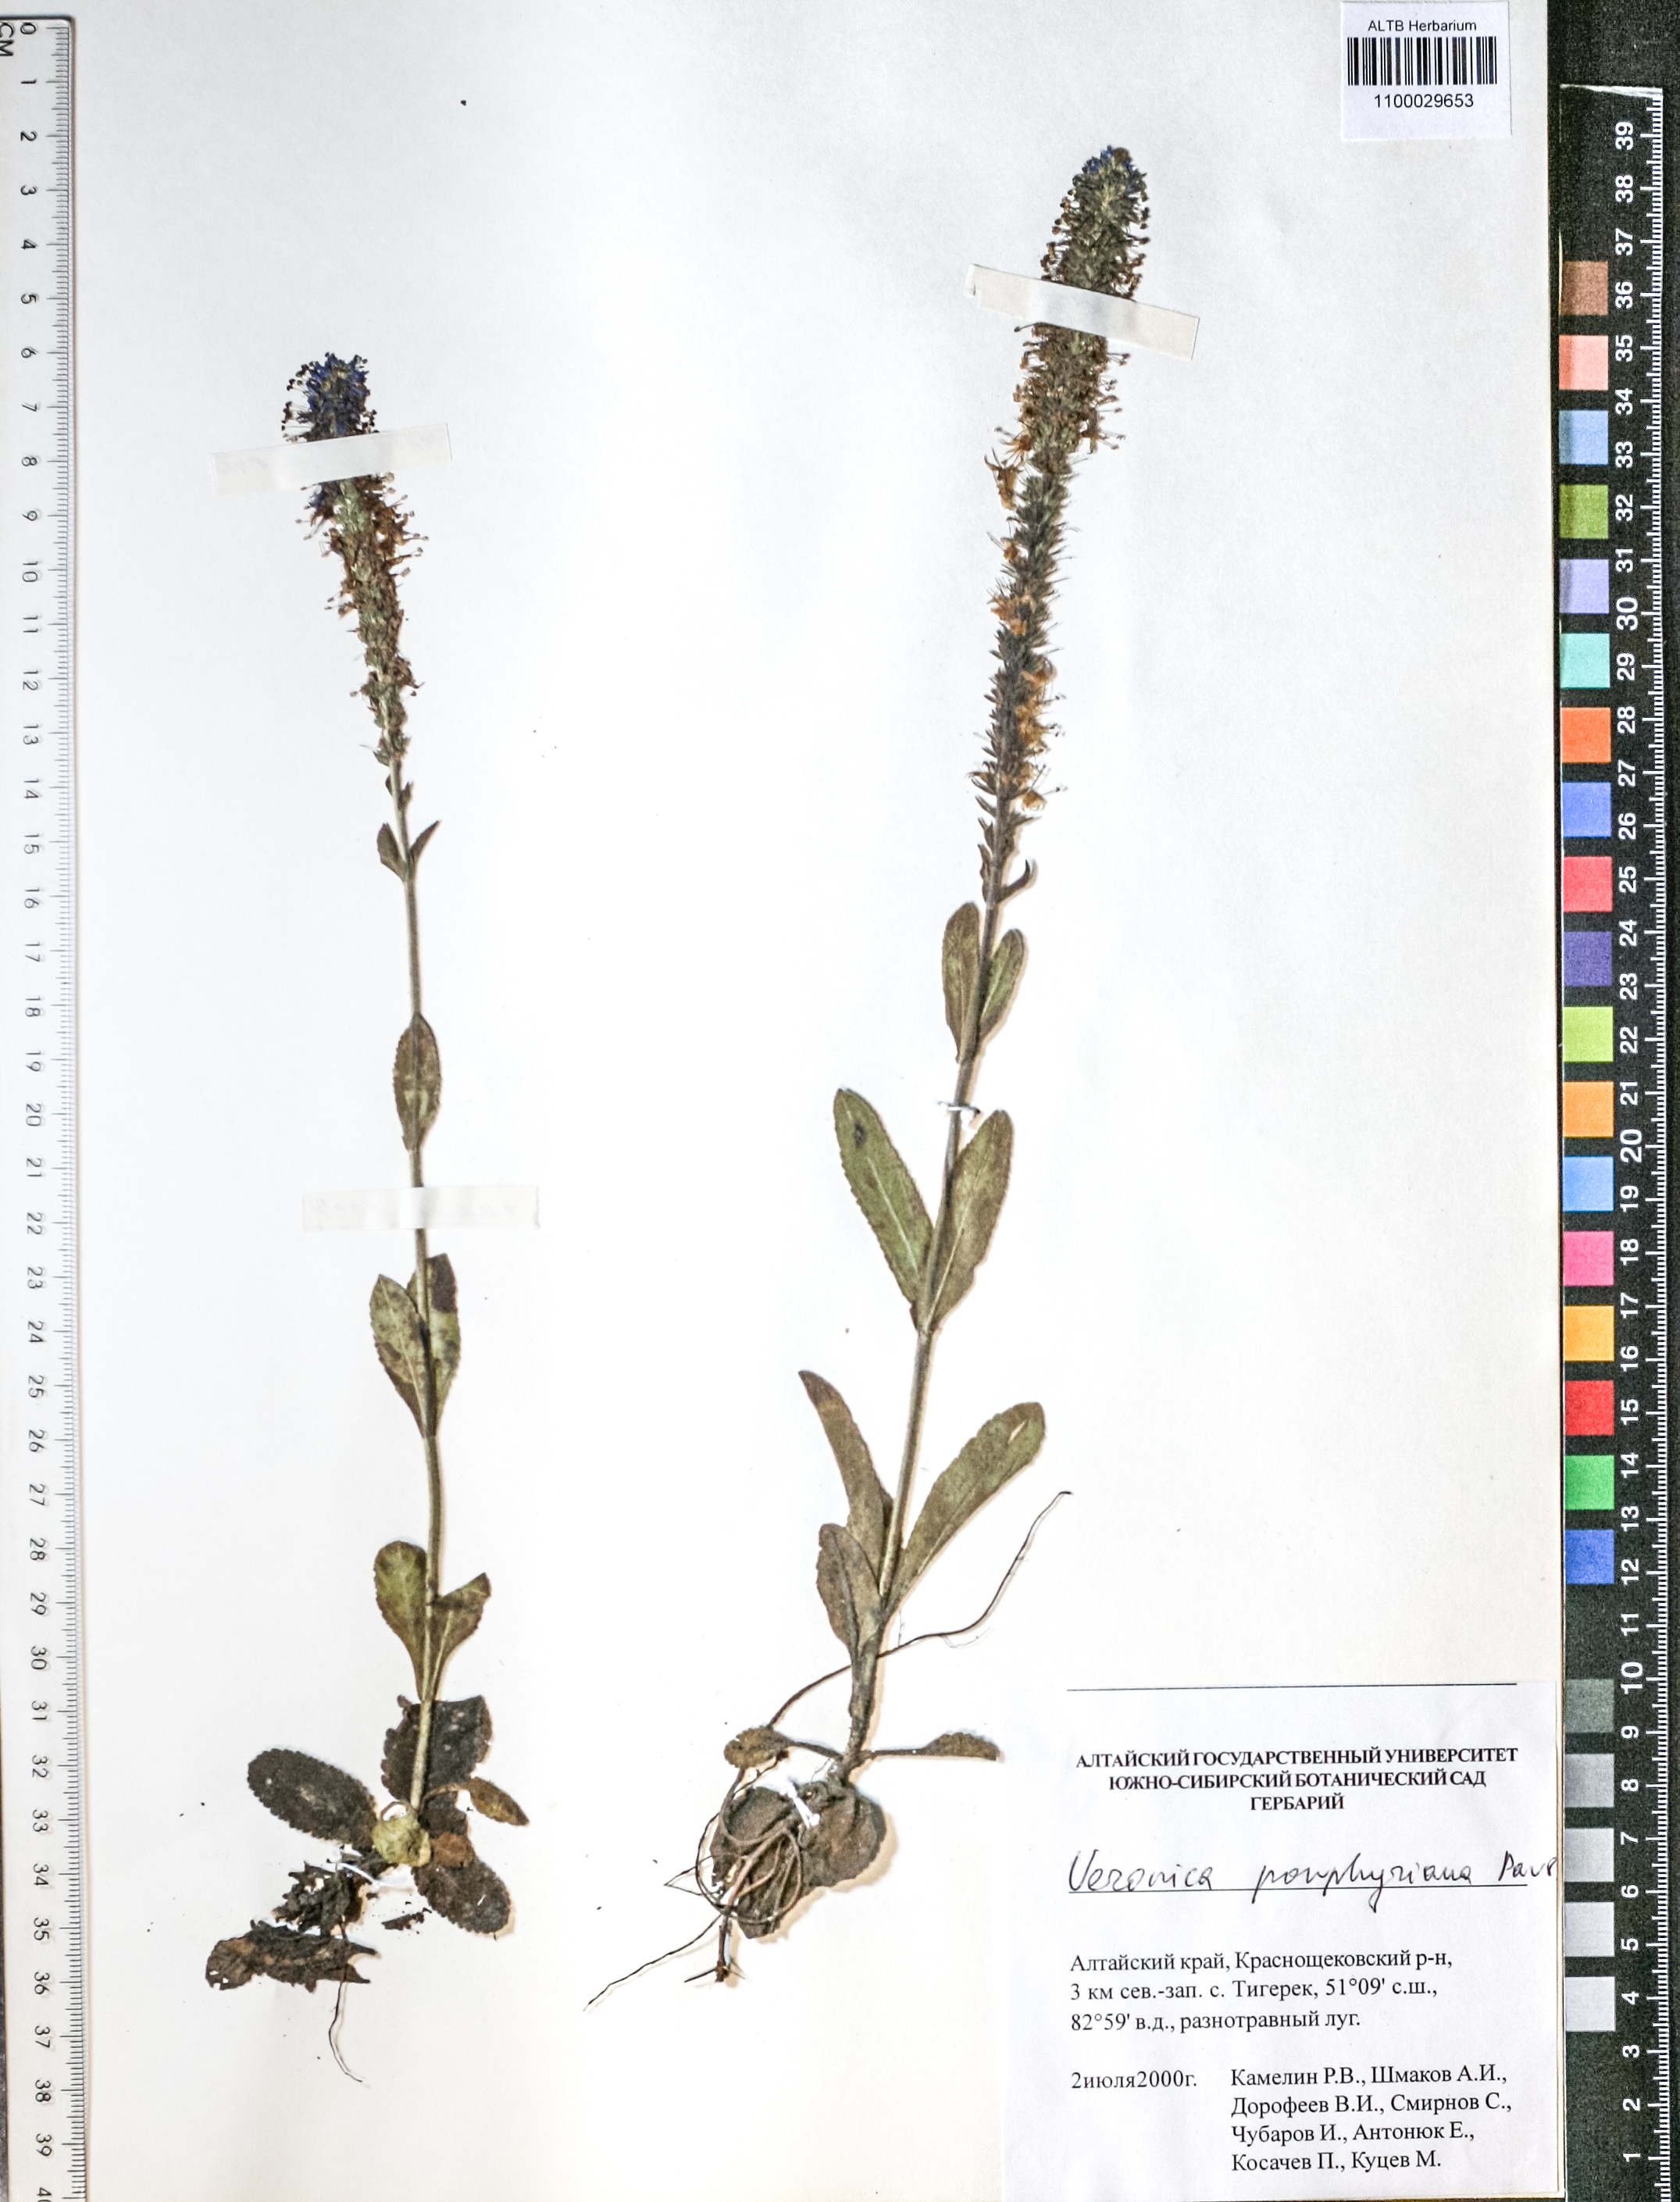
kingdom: Plantae
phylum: Tracheophyta
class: Magnoliopsida
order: Lamiales
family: Plantaginaceae
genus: Veronica
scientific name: Veronica porphyriana
